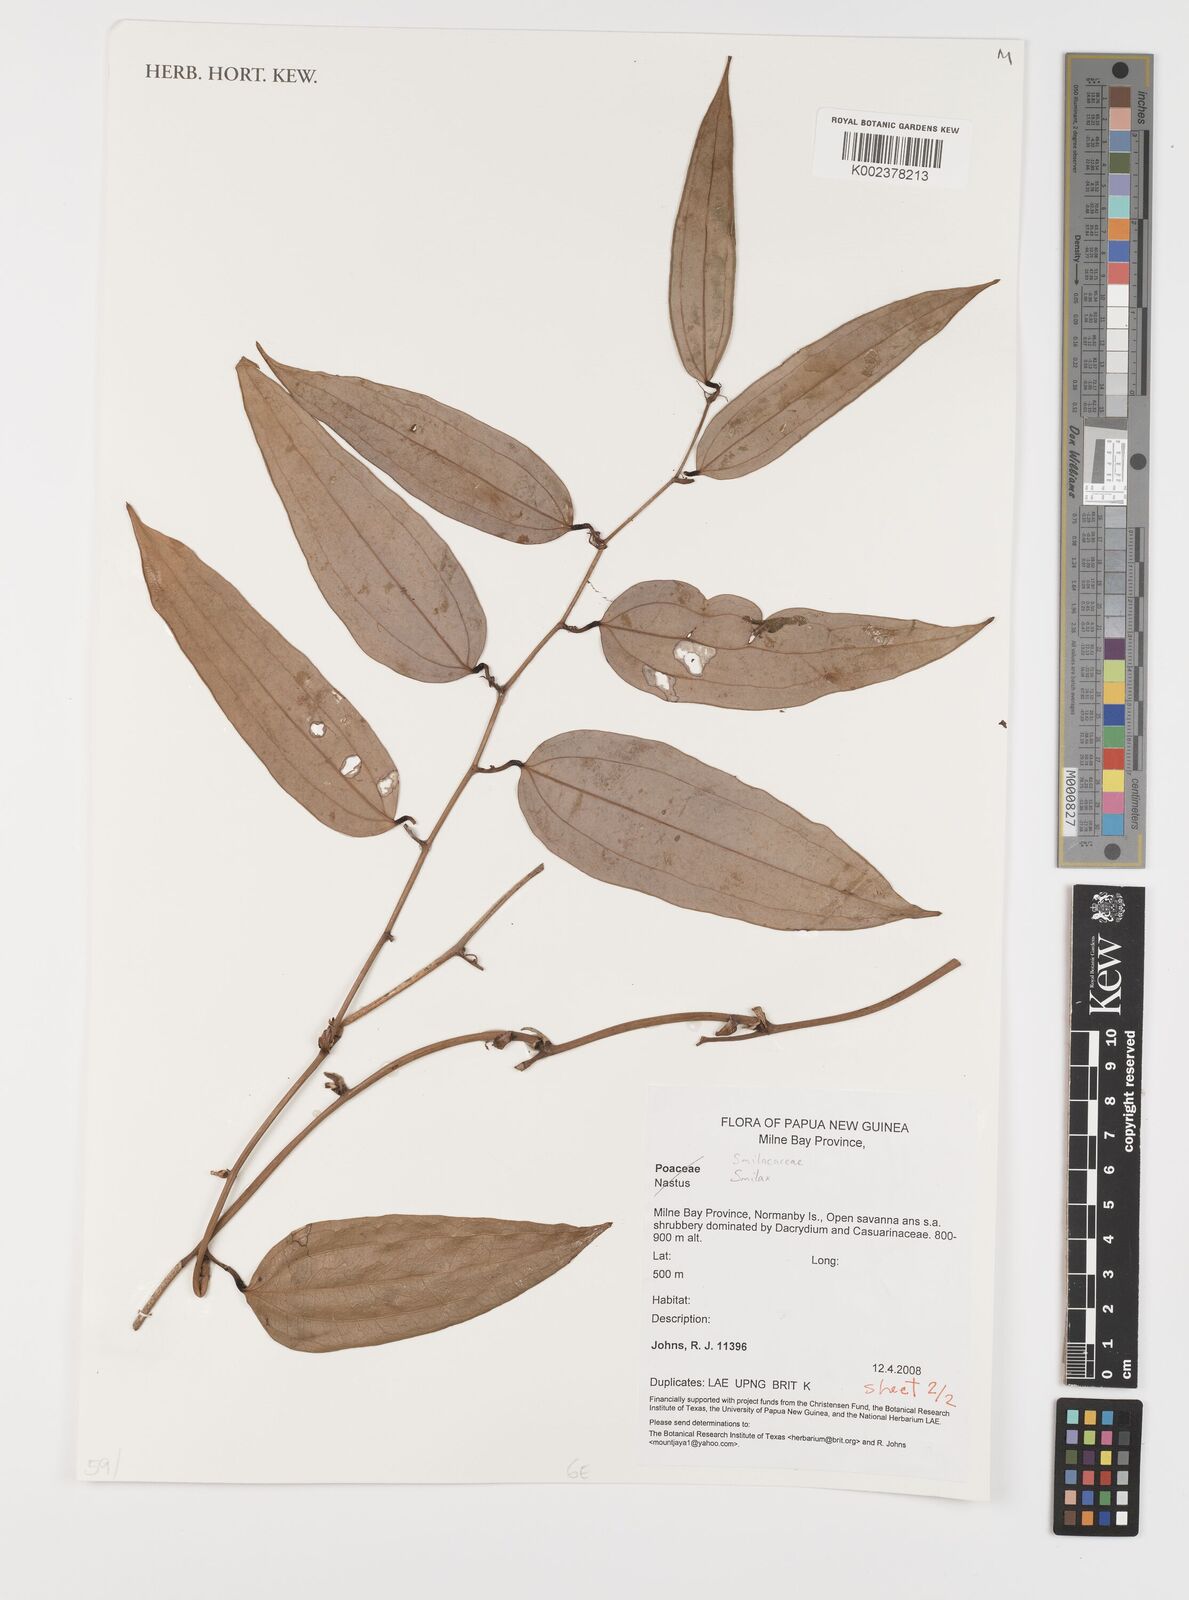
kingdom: Plantae
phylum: Tracheophyta
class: Liliopsida
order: Liliales
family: Smilacaceae
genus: Smilax
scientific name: Smilax
